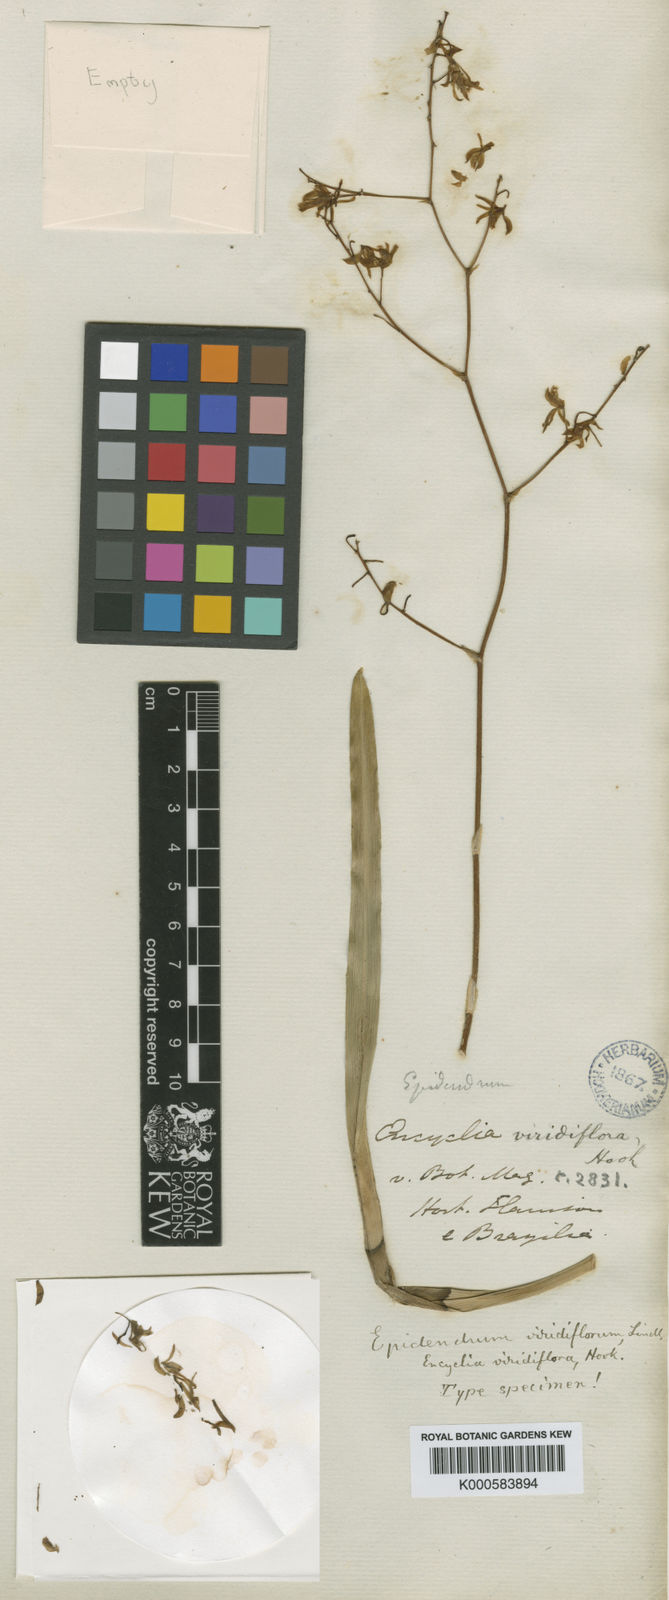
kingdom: Plantae
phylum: Tracheophyta
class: Liliopsida
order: Asparagales
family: Orchidaceae
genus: Encyclia
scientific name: Encyclia viridiflora
